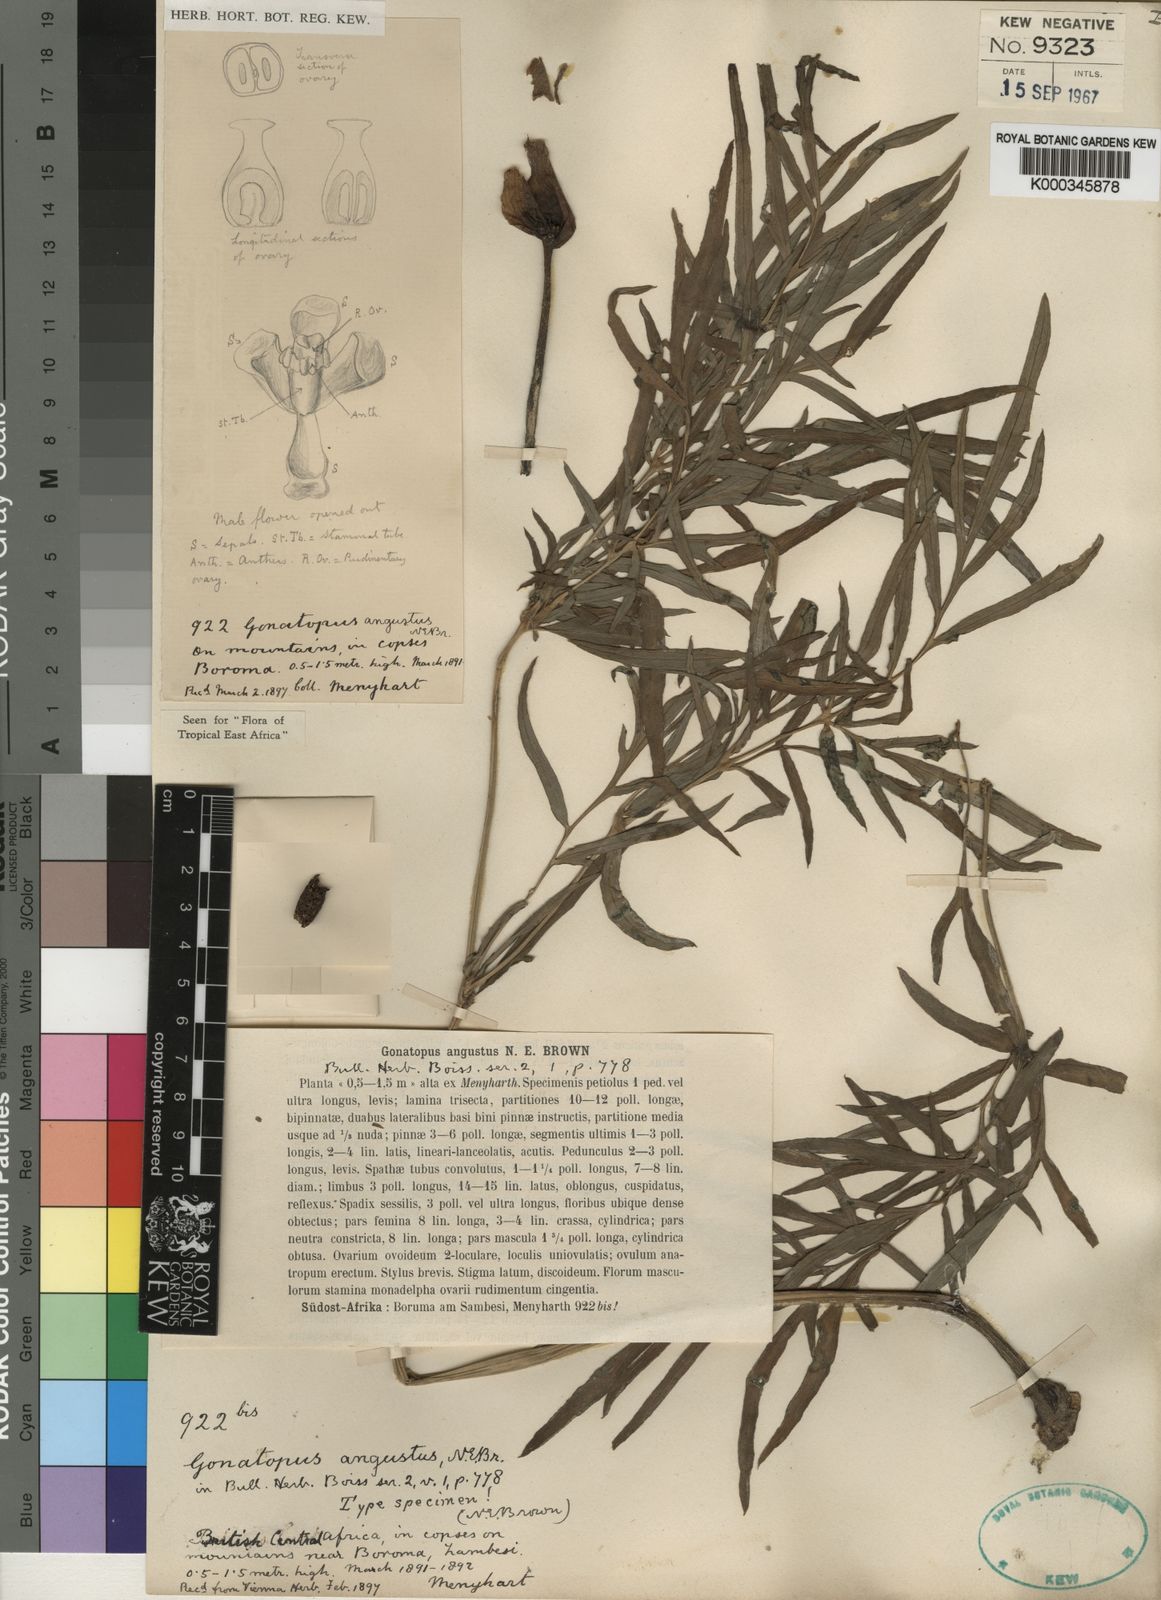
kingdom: Plantae
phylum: Tracheophyta
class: Liliopsida
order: Alismatales
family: Araceae
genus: Gonatopus
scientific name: Gonatopus angustus
